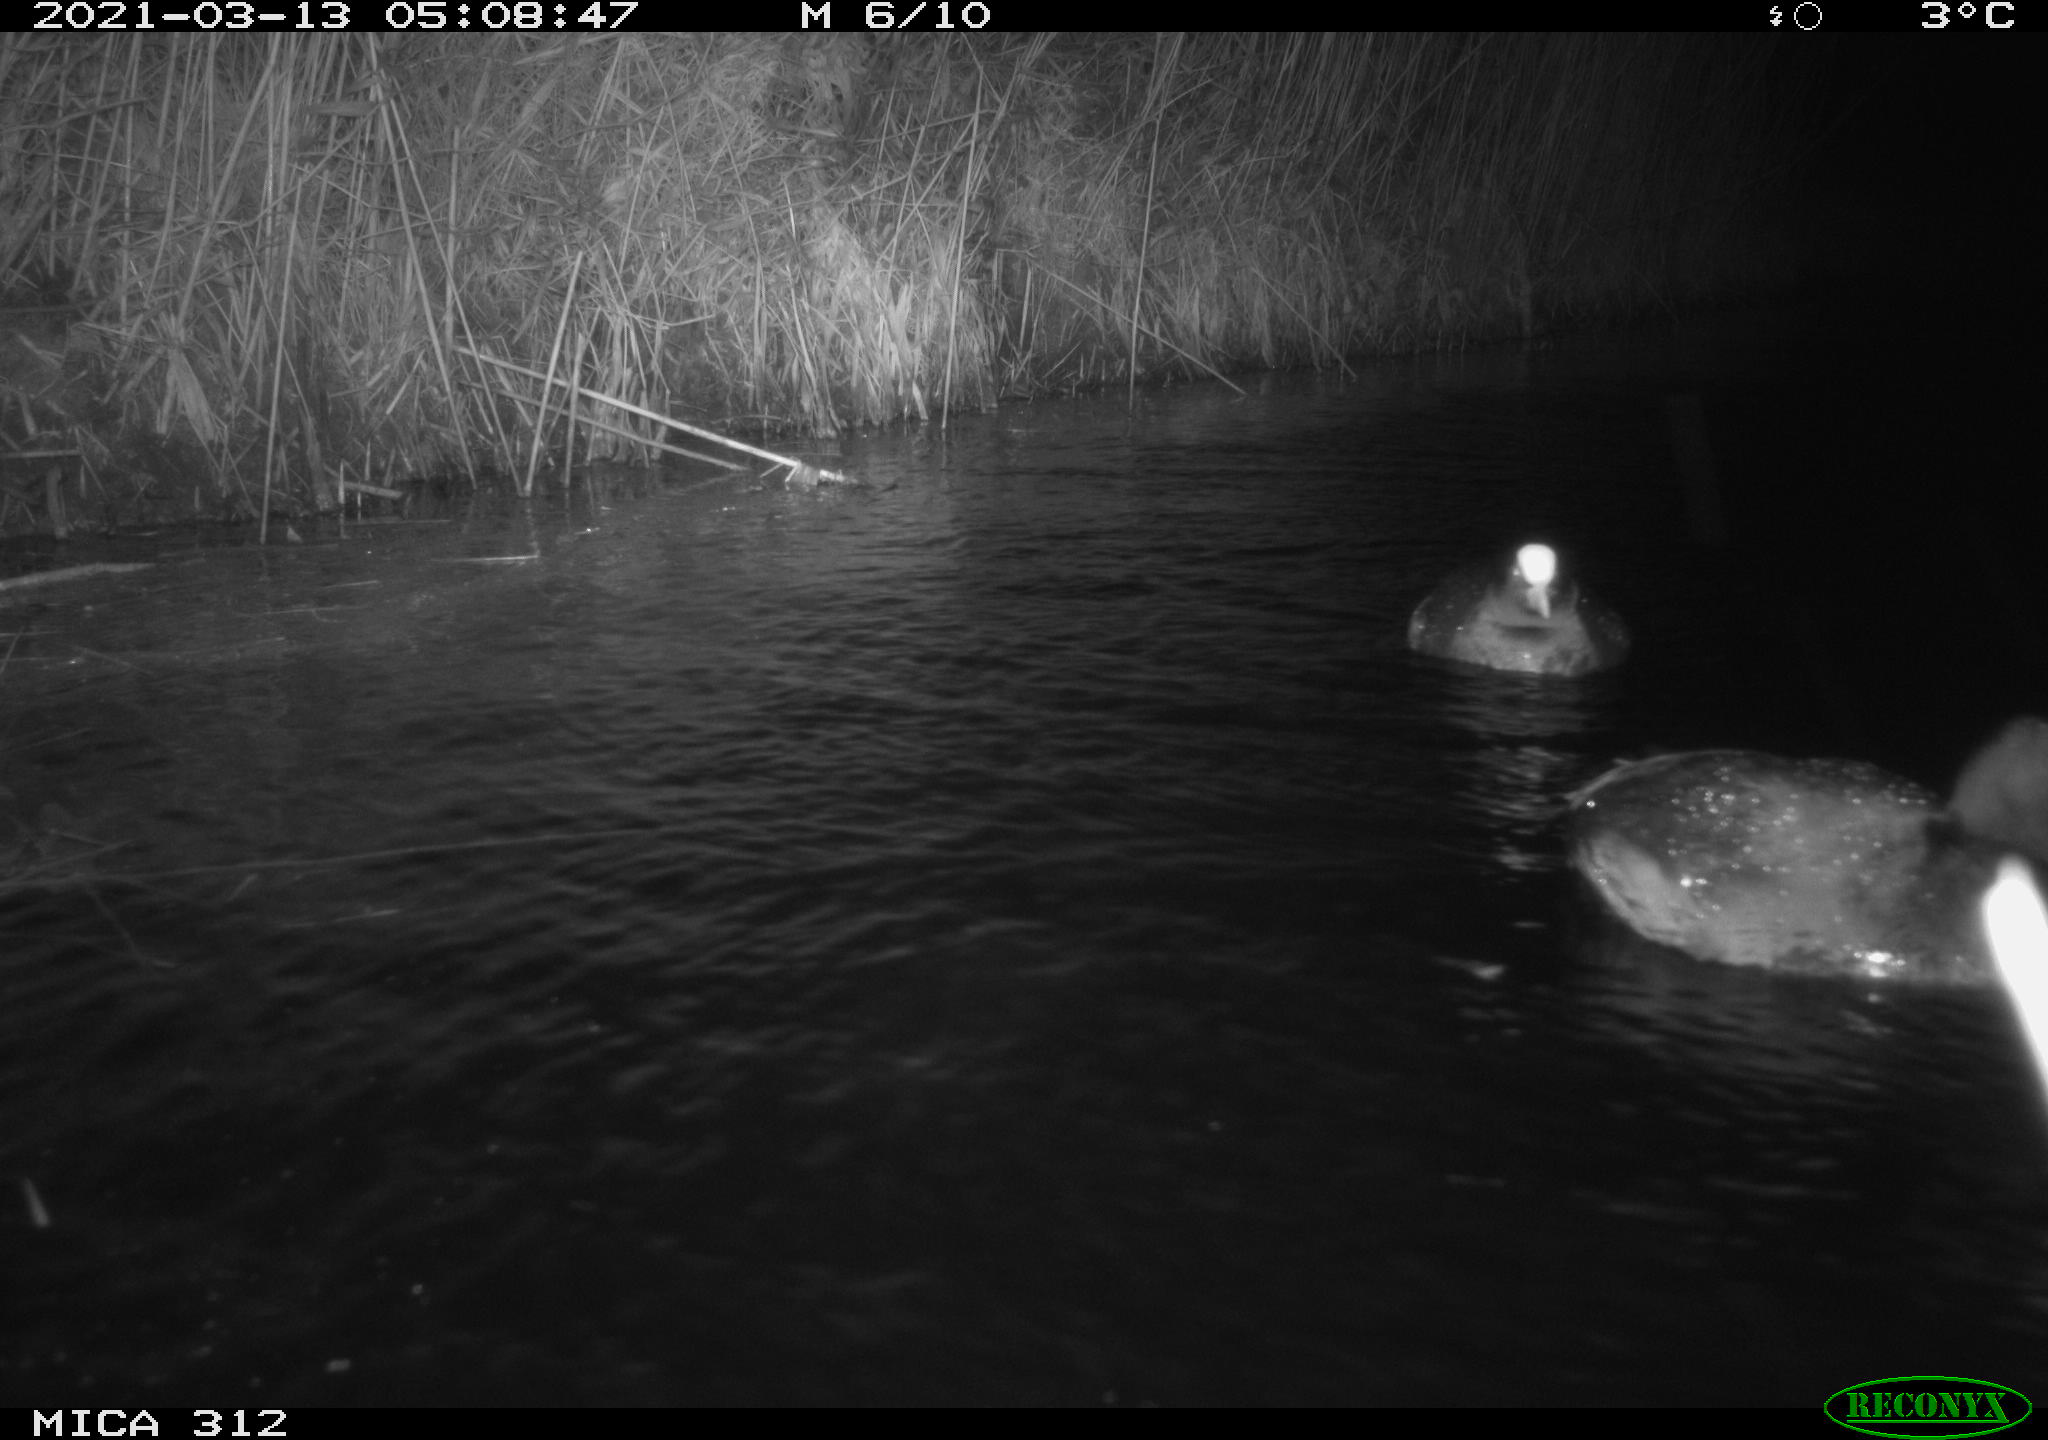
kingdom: Animalia
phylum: Chordata
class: Aves
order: Gruiformes
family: Rallidae
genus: Fulica
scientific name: Fulica atra
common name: Eurasian coot
